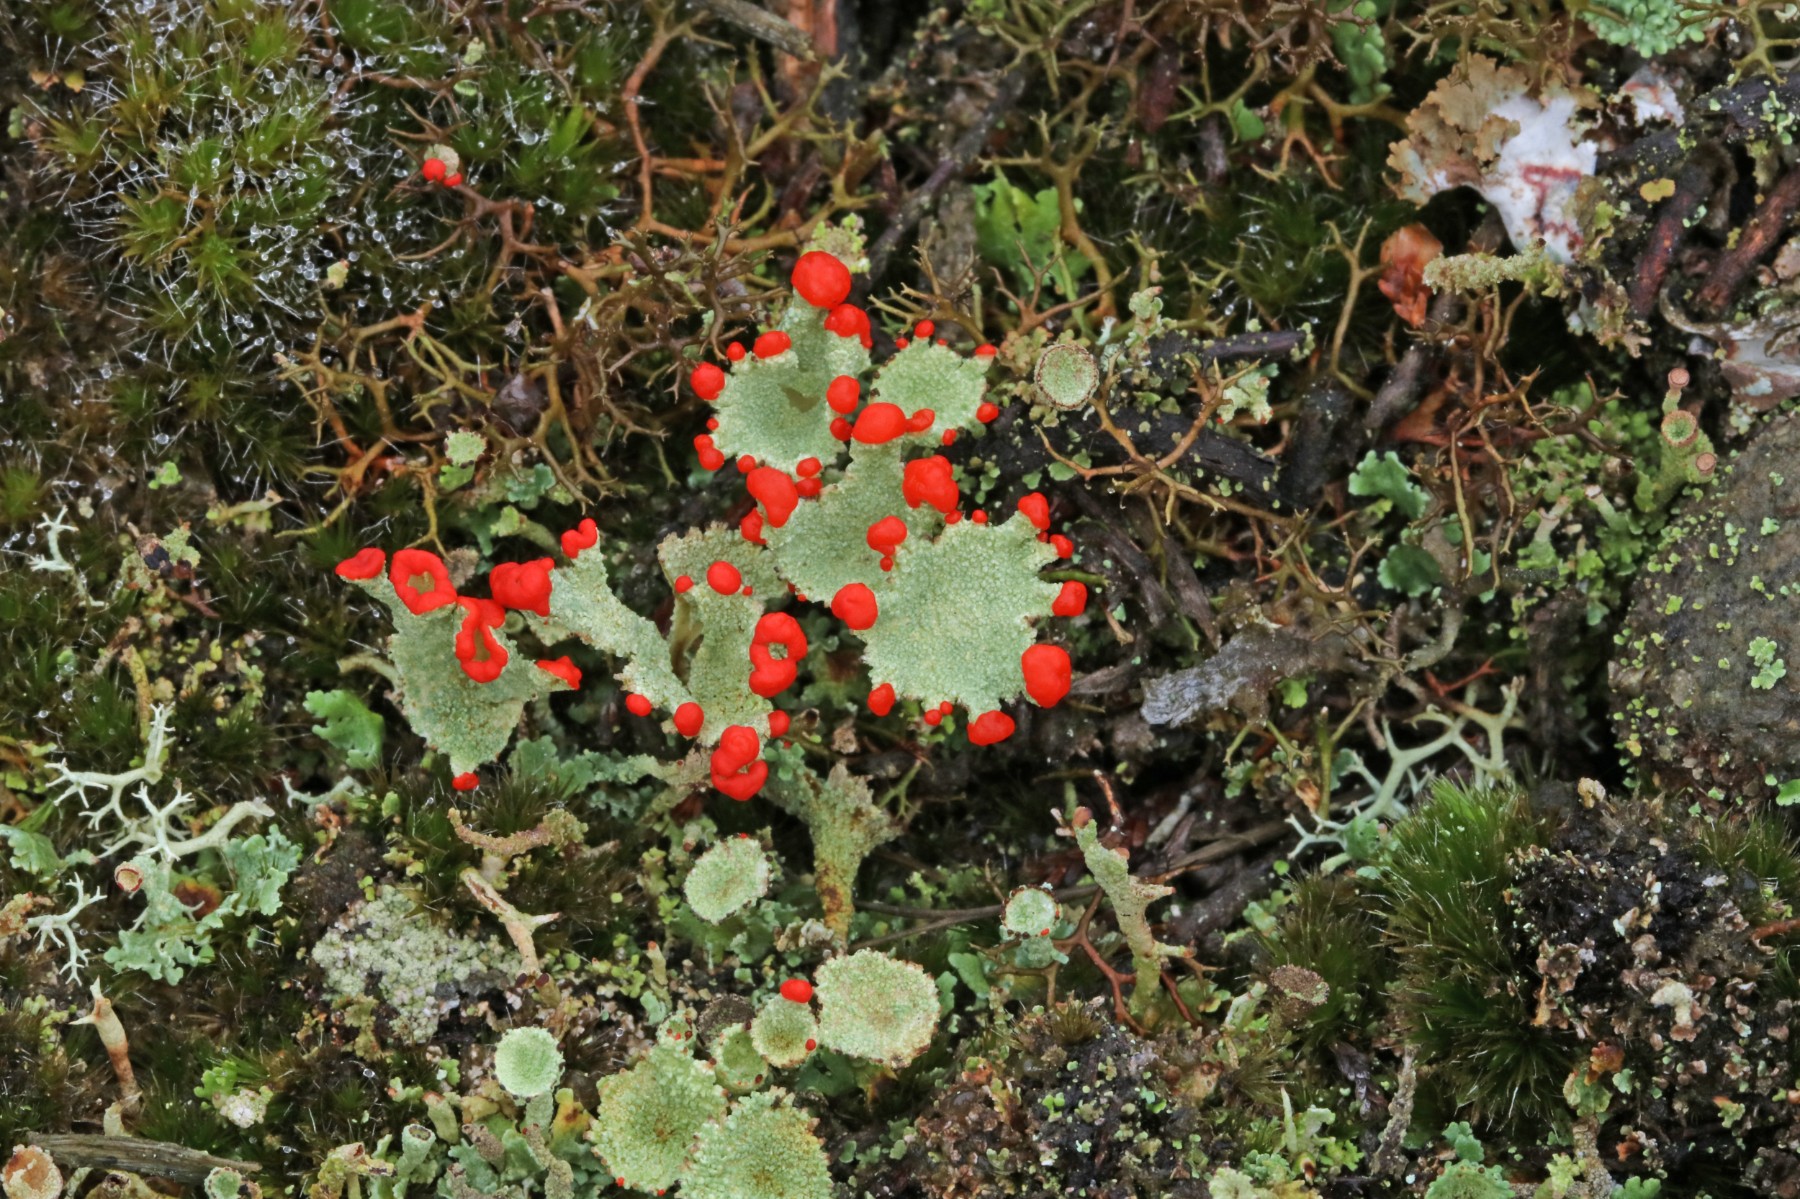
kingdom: Fungi
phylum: Ascomycota
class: Lecanoromycetes
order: Lecanorales
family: Cladoniaceae
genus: Cladonia
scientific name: Cladonia diversa
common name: rød bægerlav
